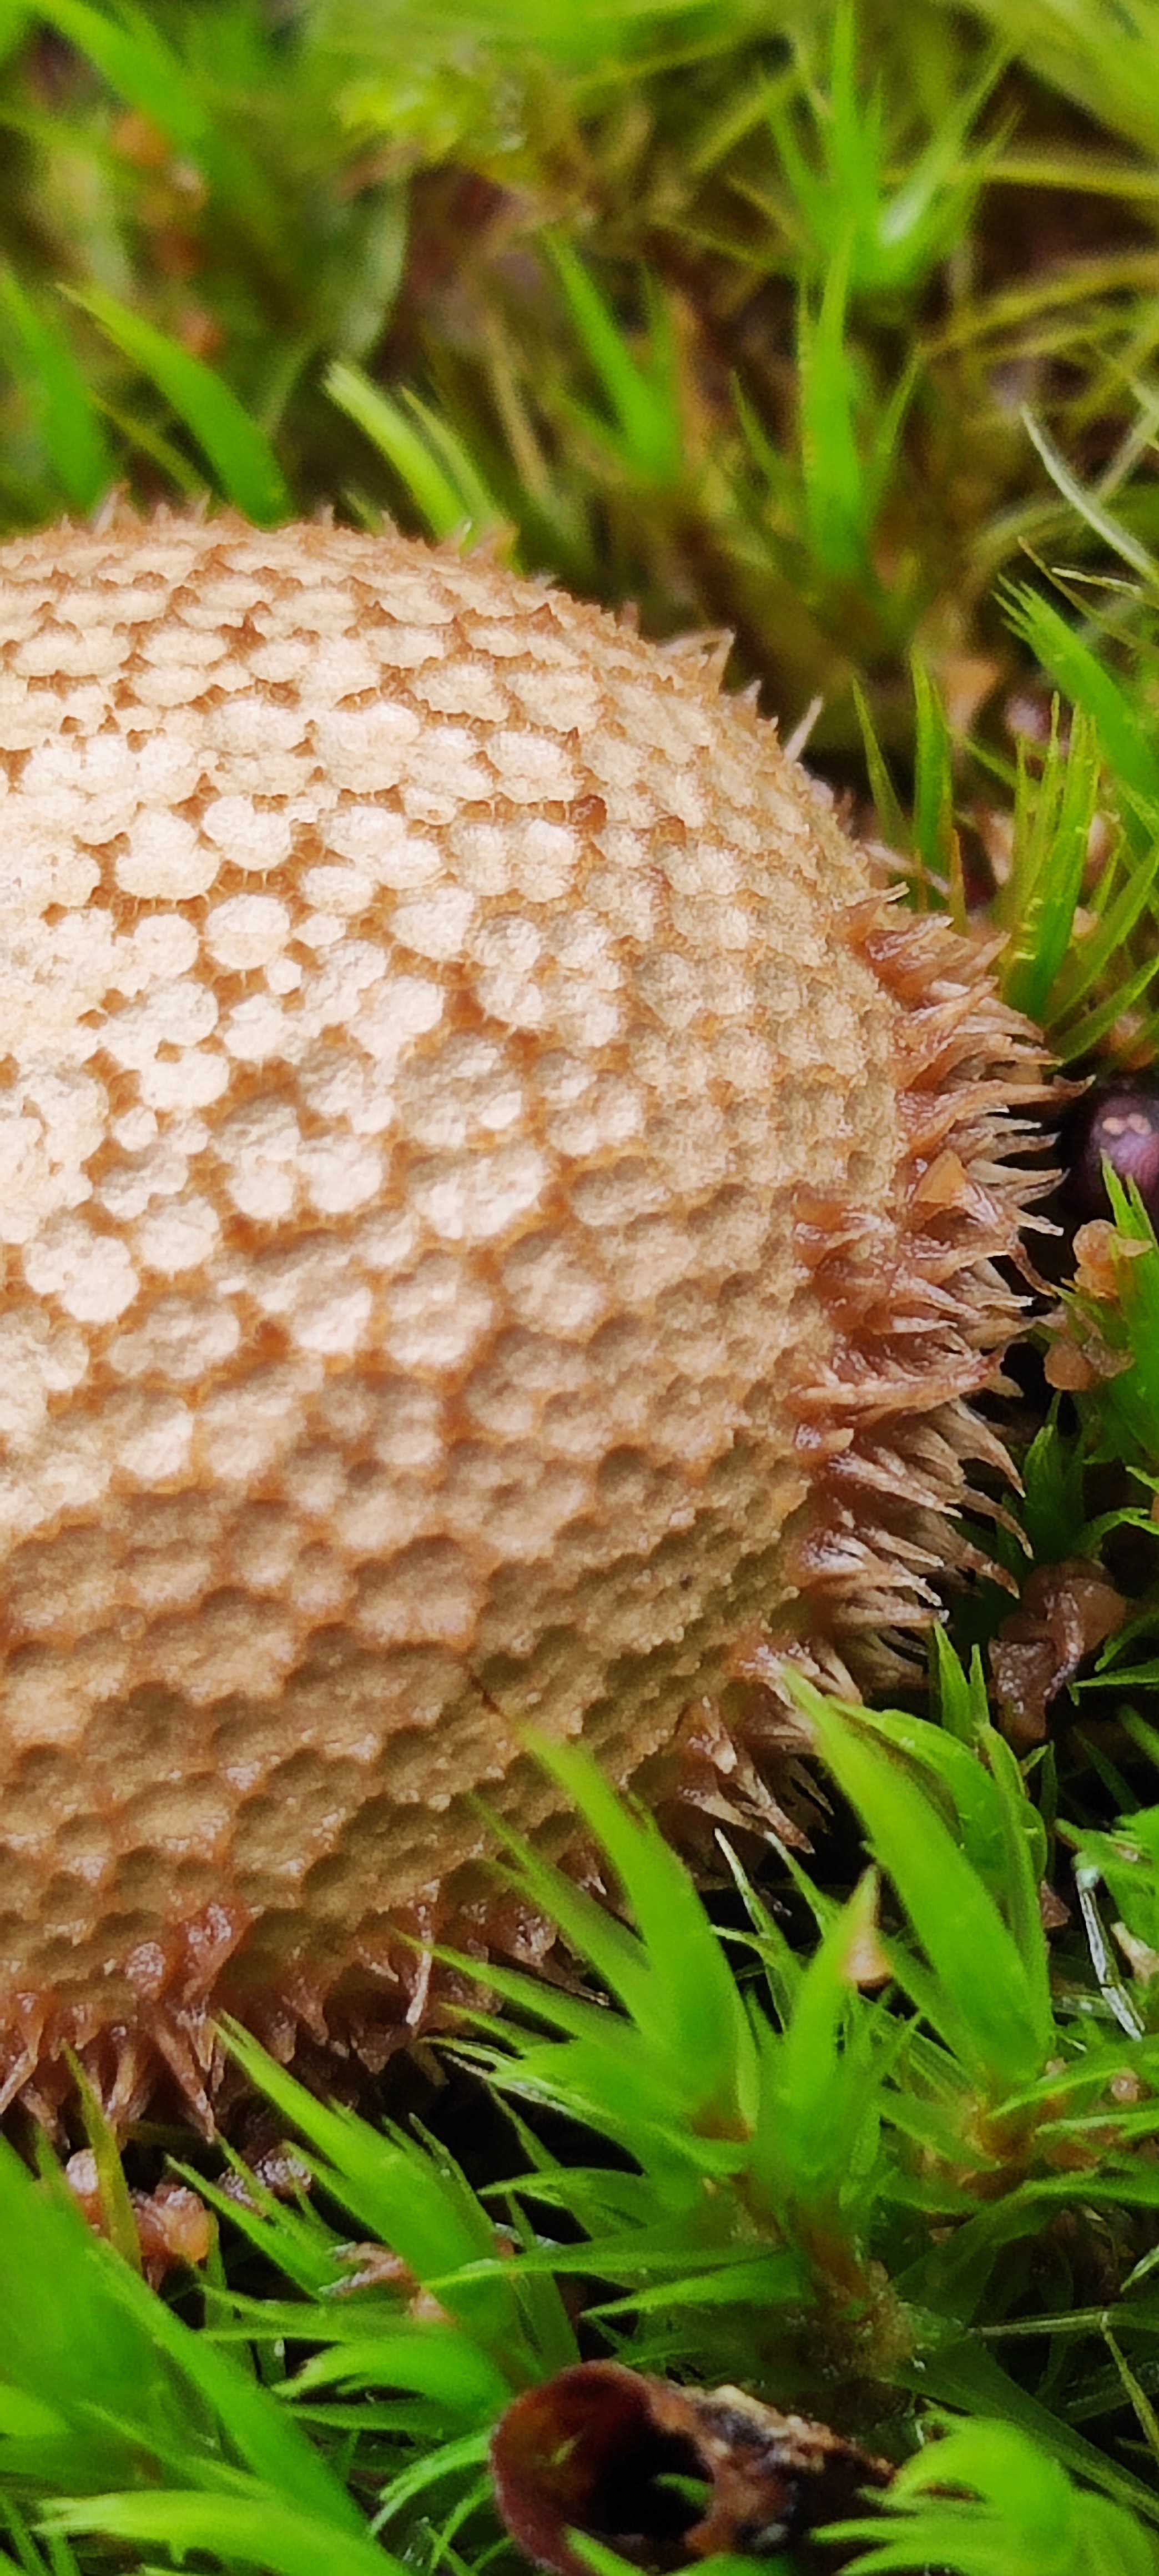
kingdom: Fungi
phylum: Basidiomycota
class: Agaricomycetes
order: Agaricales
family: Lycoperdaceae
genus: Lycoperdon
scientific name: Lycoperdon echinatum
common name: pindsvine-støvbold
